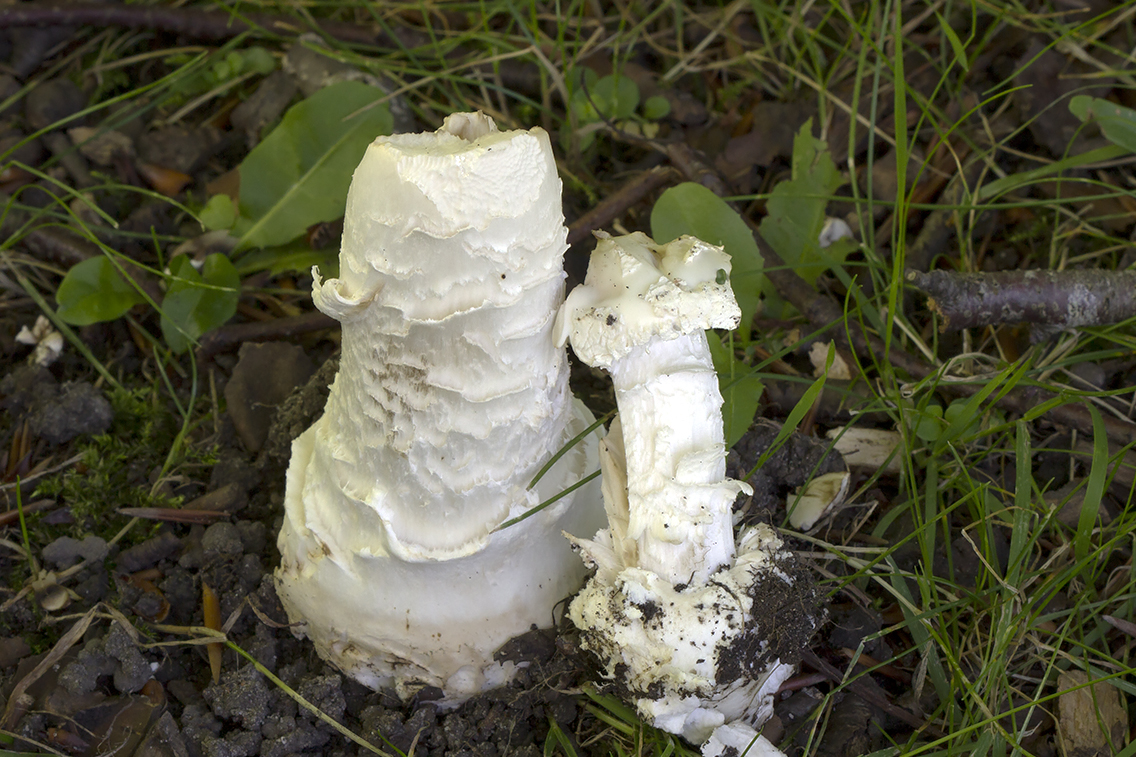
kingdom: Fungi
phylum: Basidiomycota
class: Agaricomycetes
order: Agaricales
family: Amanitaceae
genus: Amanita
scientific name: Amanita
